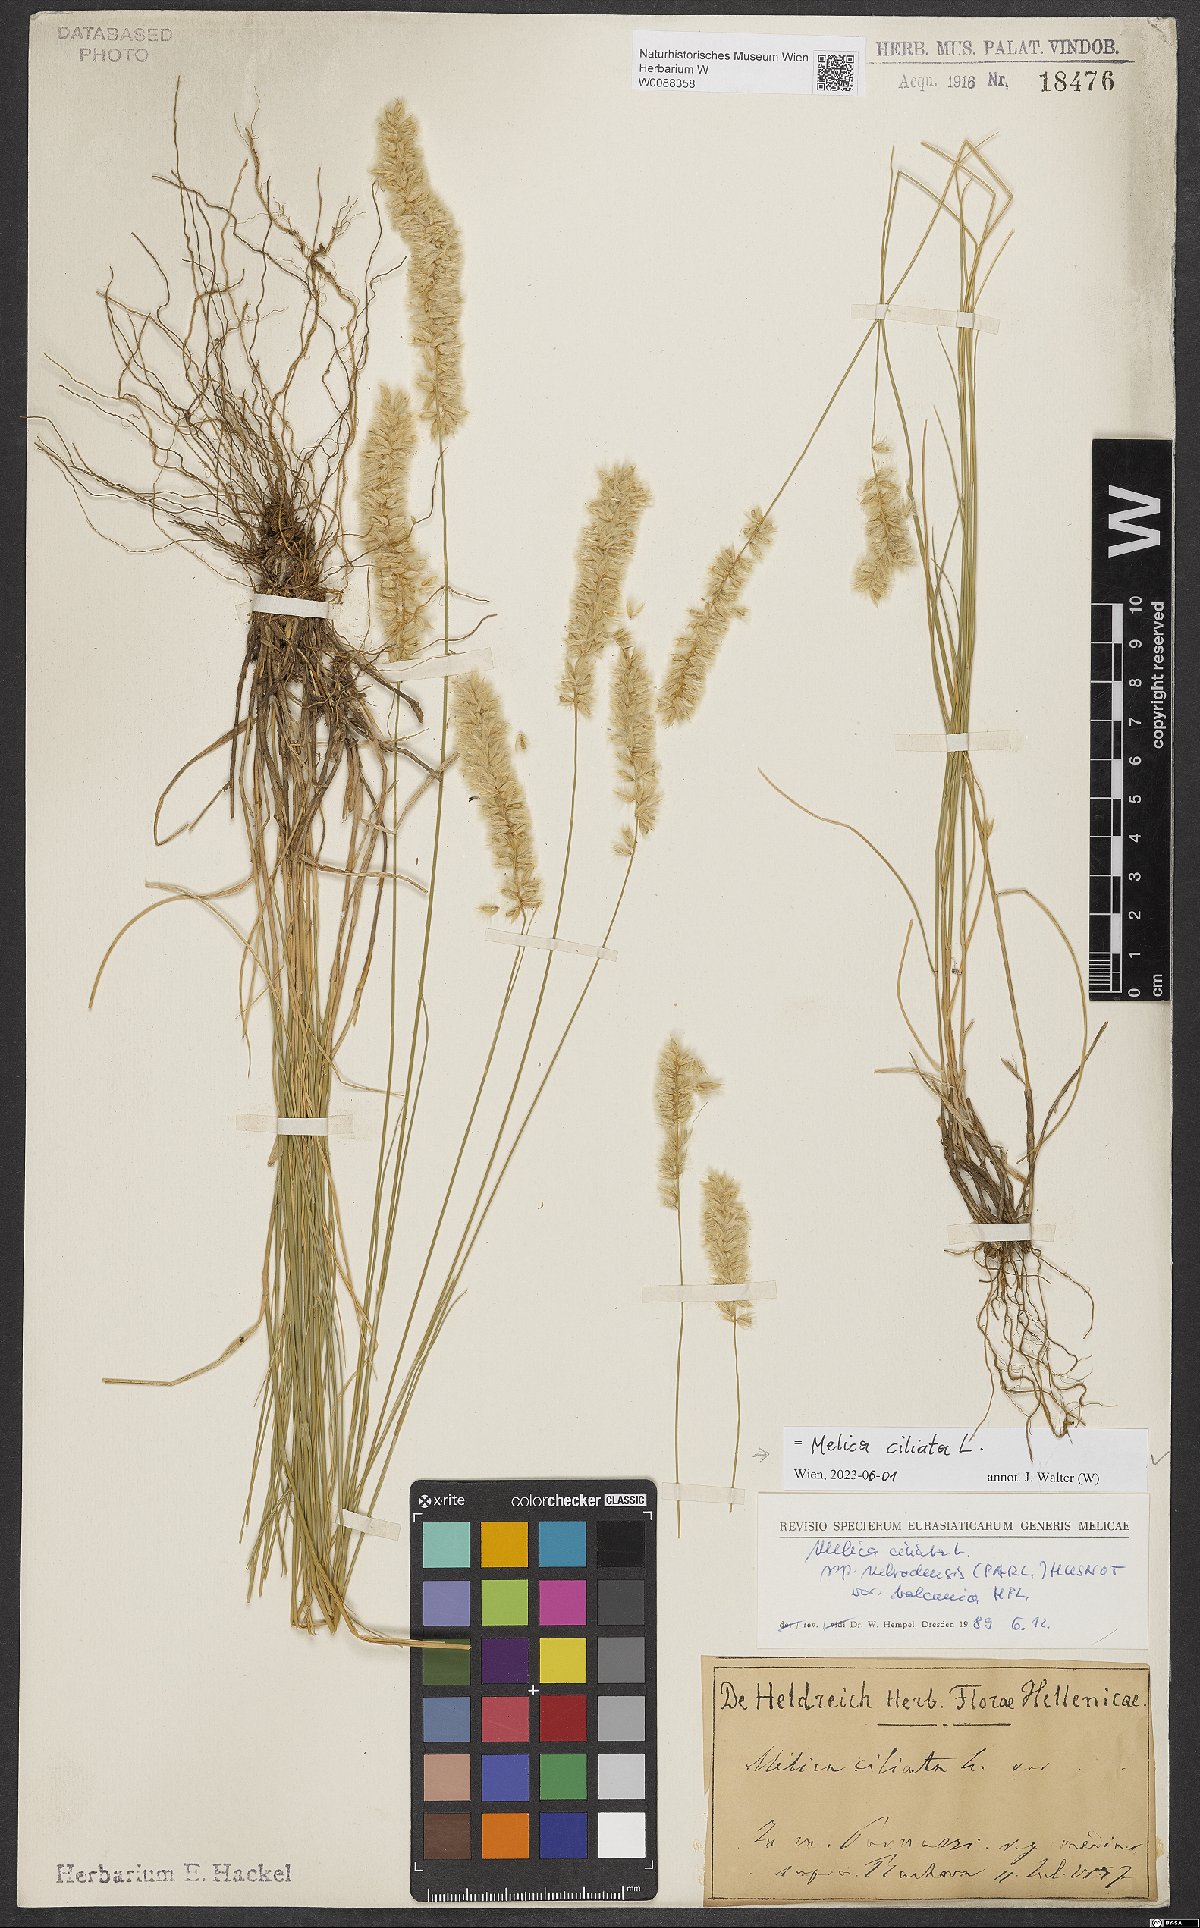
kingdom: Plantae
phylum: Tracheophyta
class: Liliopsida
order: Poales
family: Poaceae
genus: Melica
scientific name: Melica ciliata
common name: Hairy melicgrass
